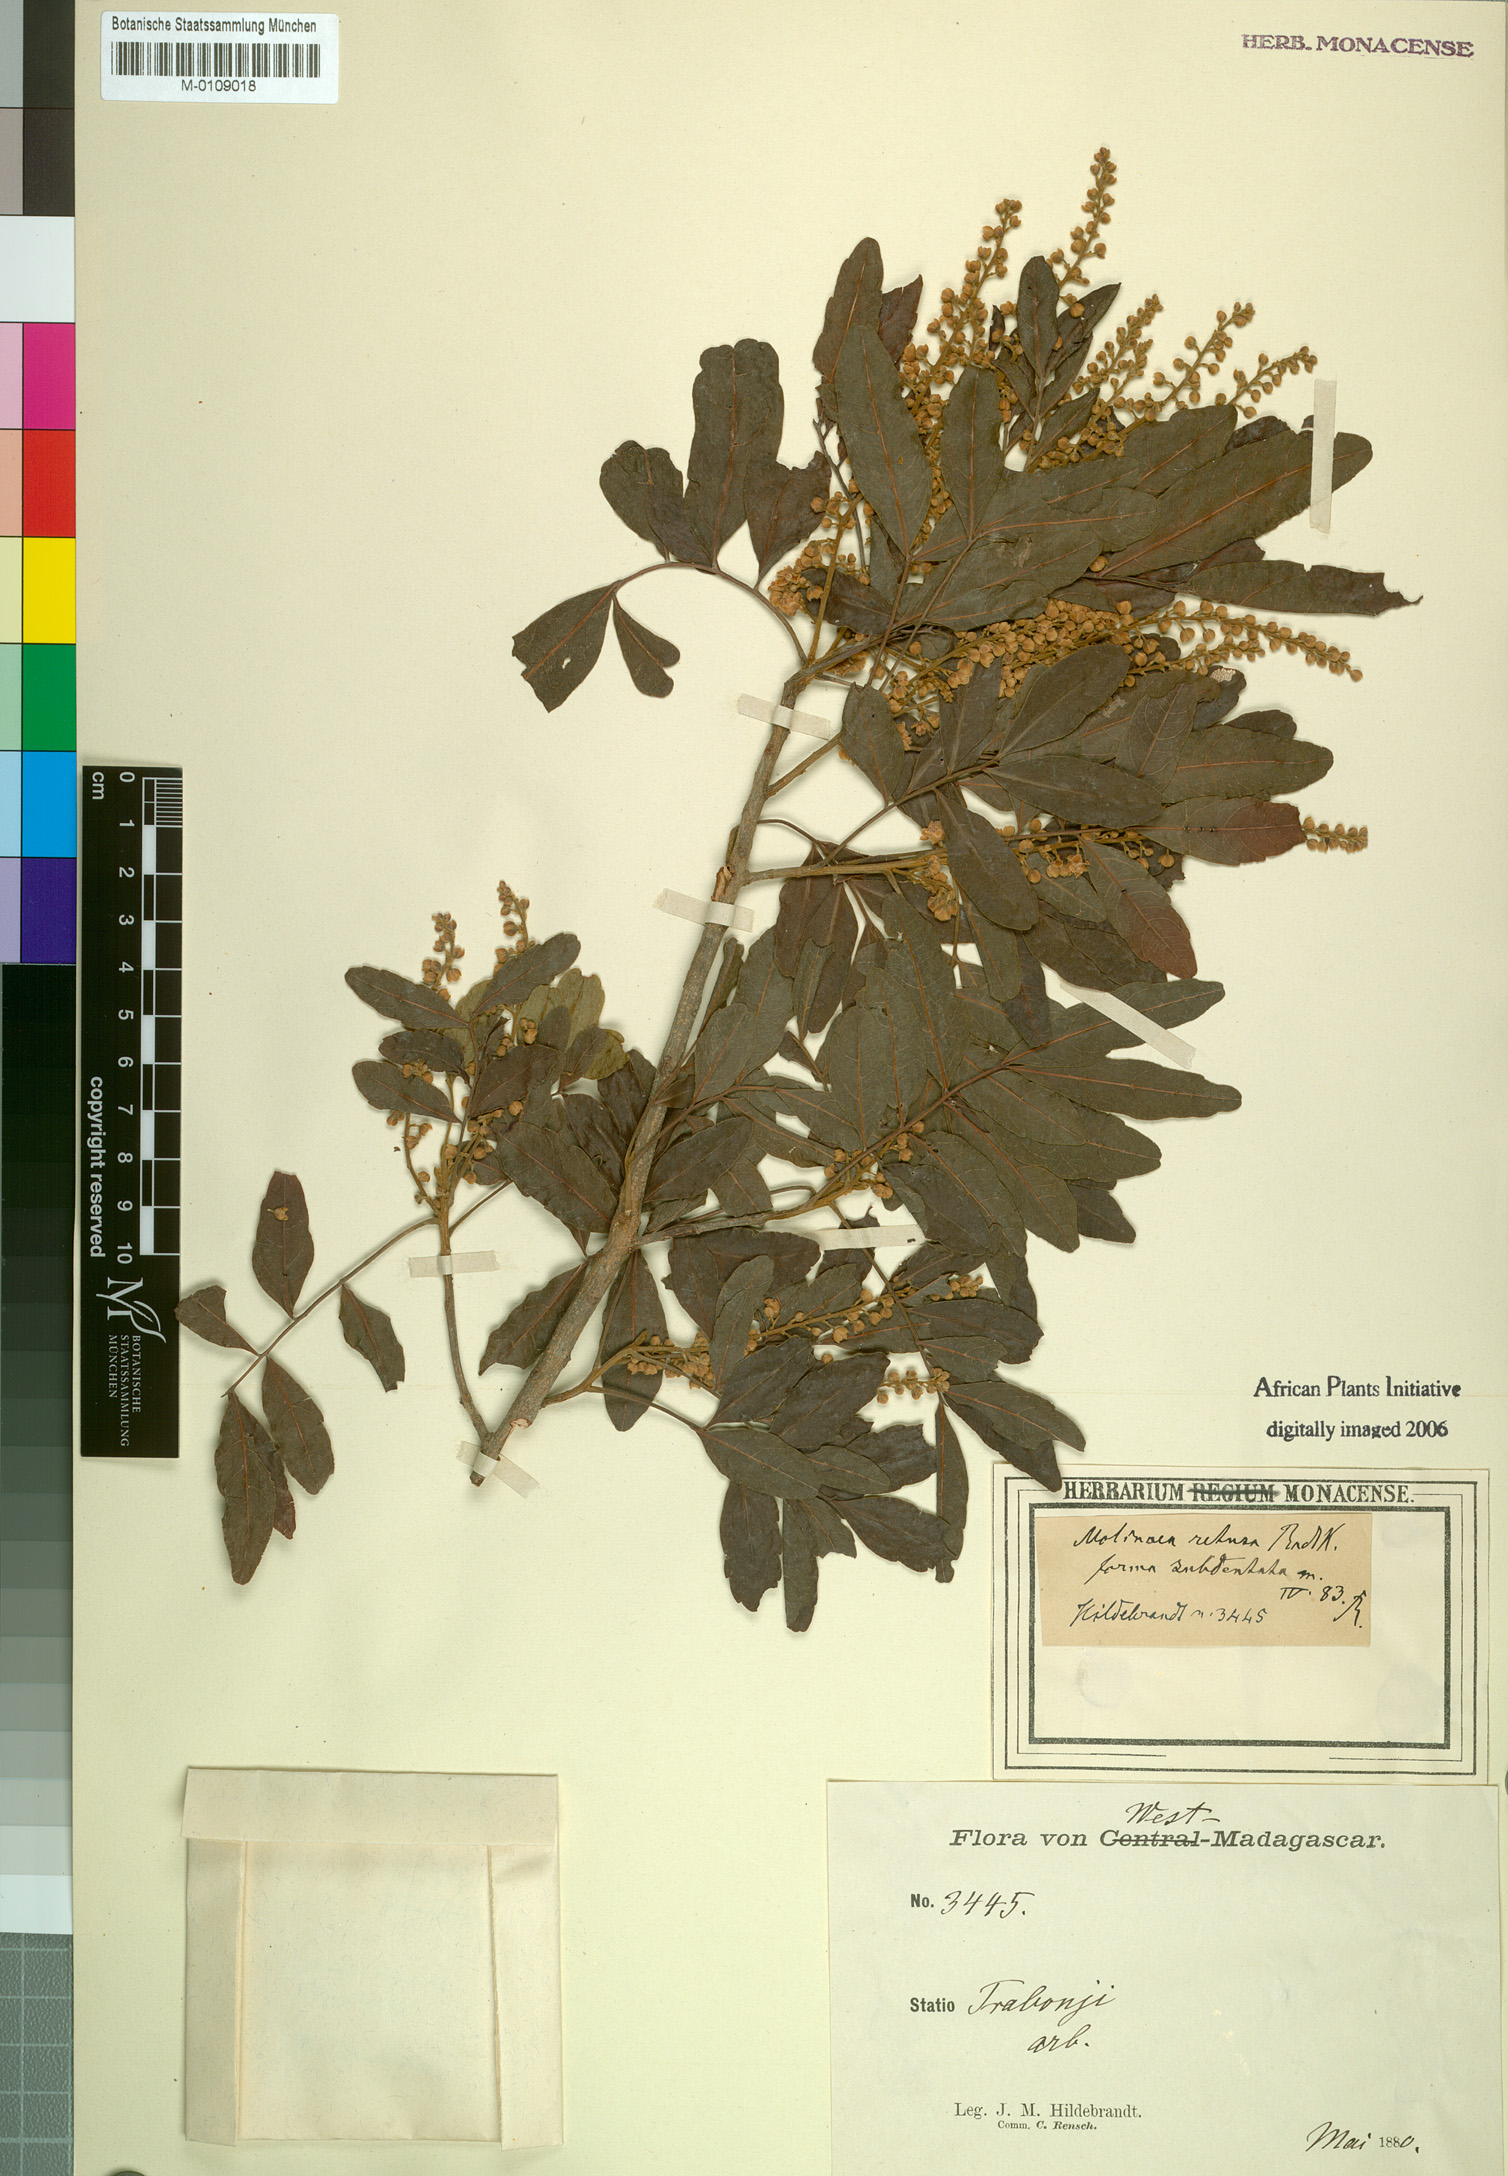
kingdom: Plantae
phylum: Tracheophyta
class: Magnoliopsida
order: Sapindales
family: Sapindaceae
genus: Molinaea
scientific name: Molinaea retusa
